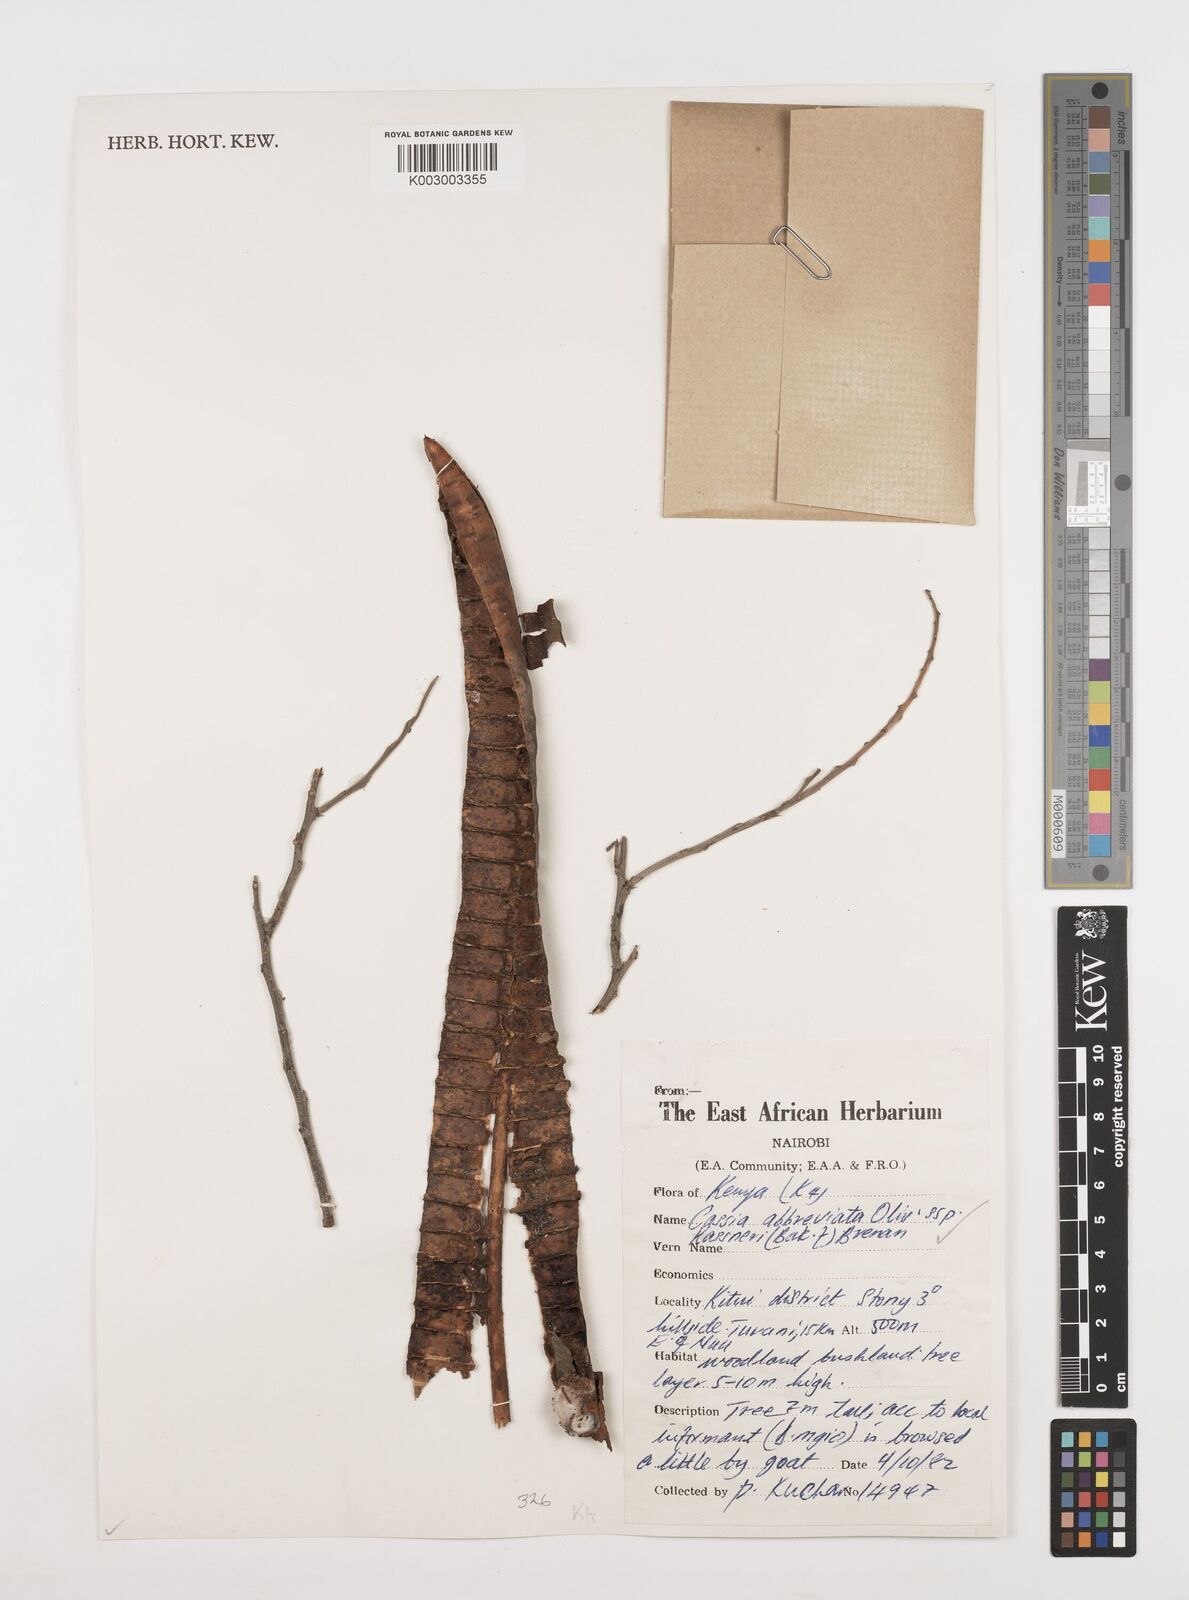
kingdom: Plantae
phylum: Tracheophyta
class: Magnoliopsida
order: Fabales
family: Fabaceae
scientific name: Fabaceae
